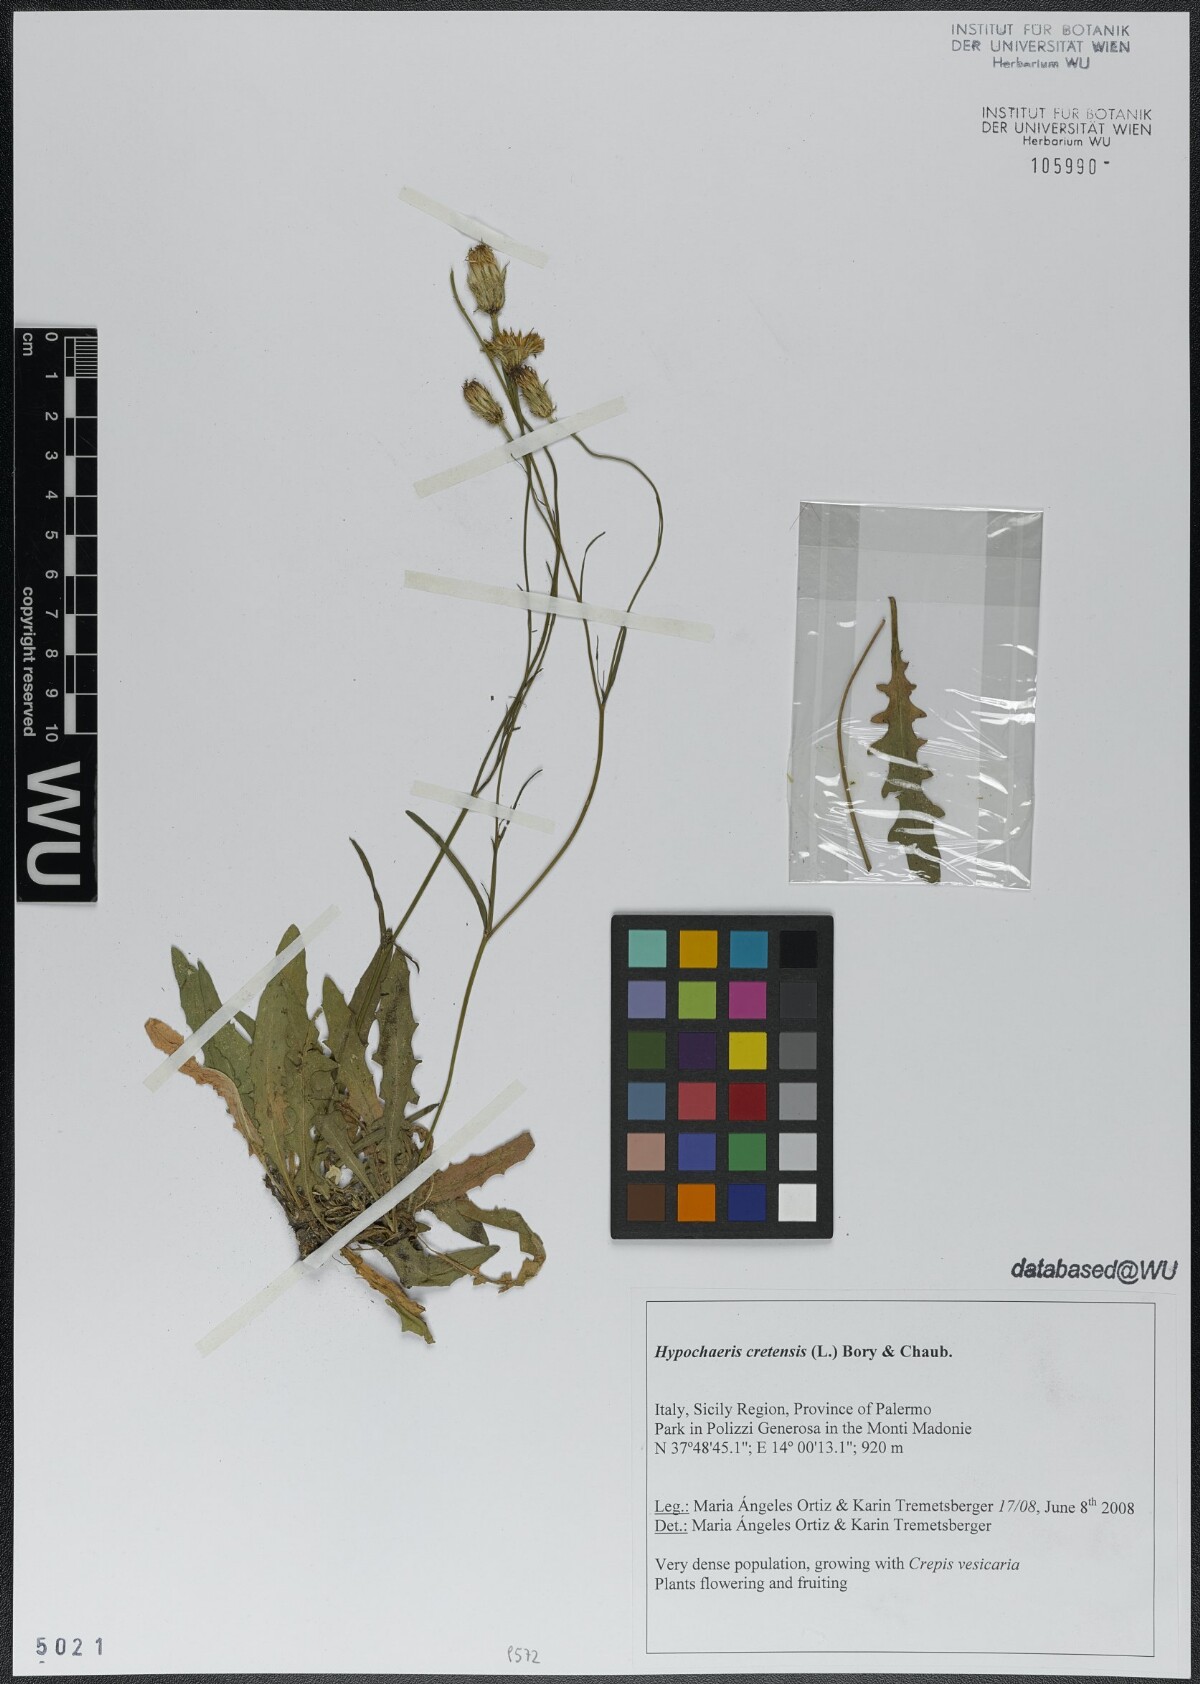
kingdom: Plantae
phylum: Tracheophyta
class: Magnoliopsida
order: Asterales
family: Asteraceae
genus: Hypochaeris
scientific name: Hypochaeris cretensis
